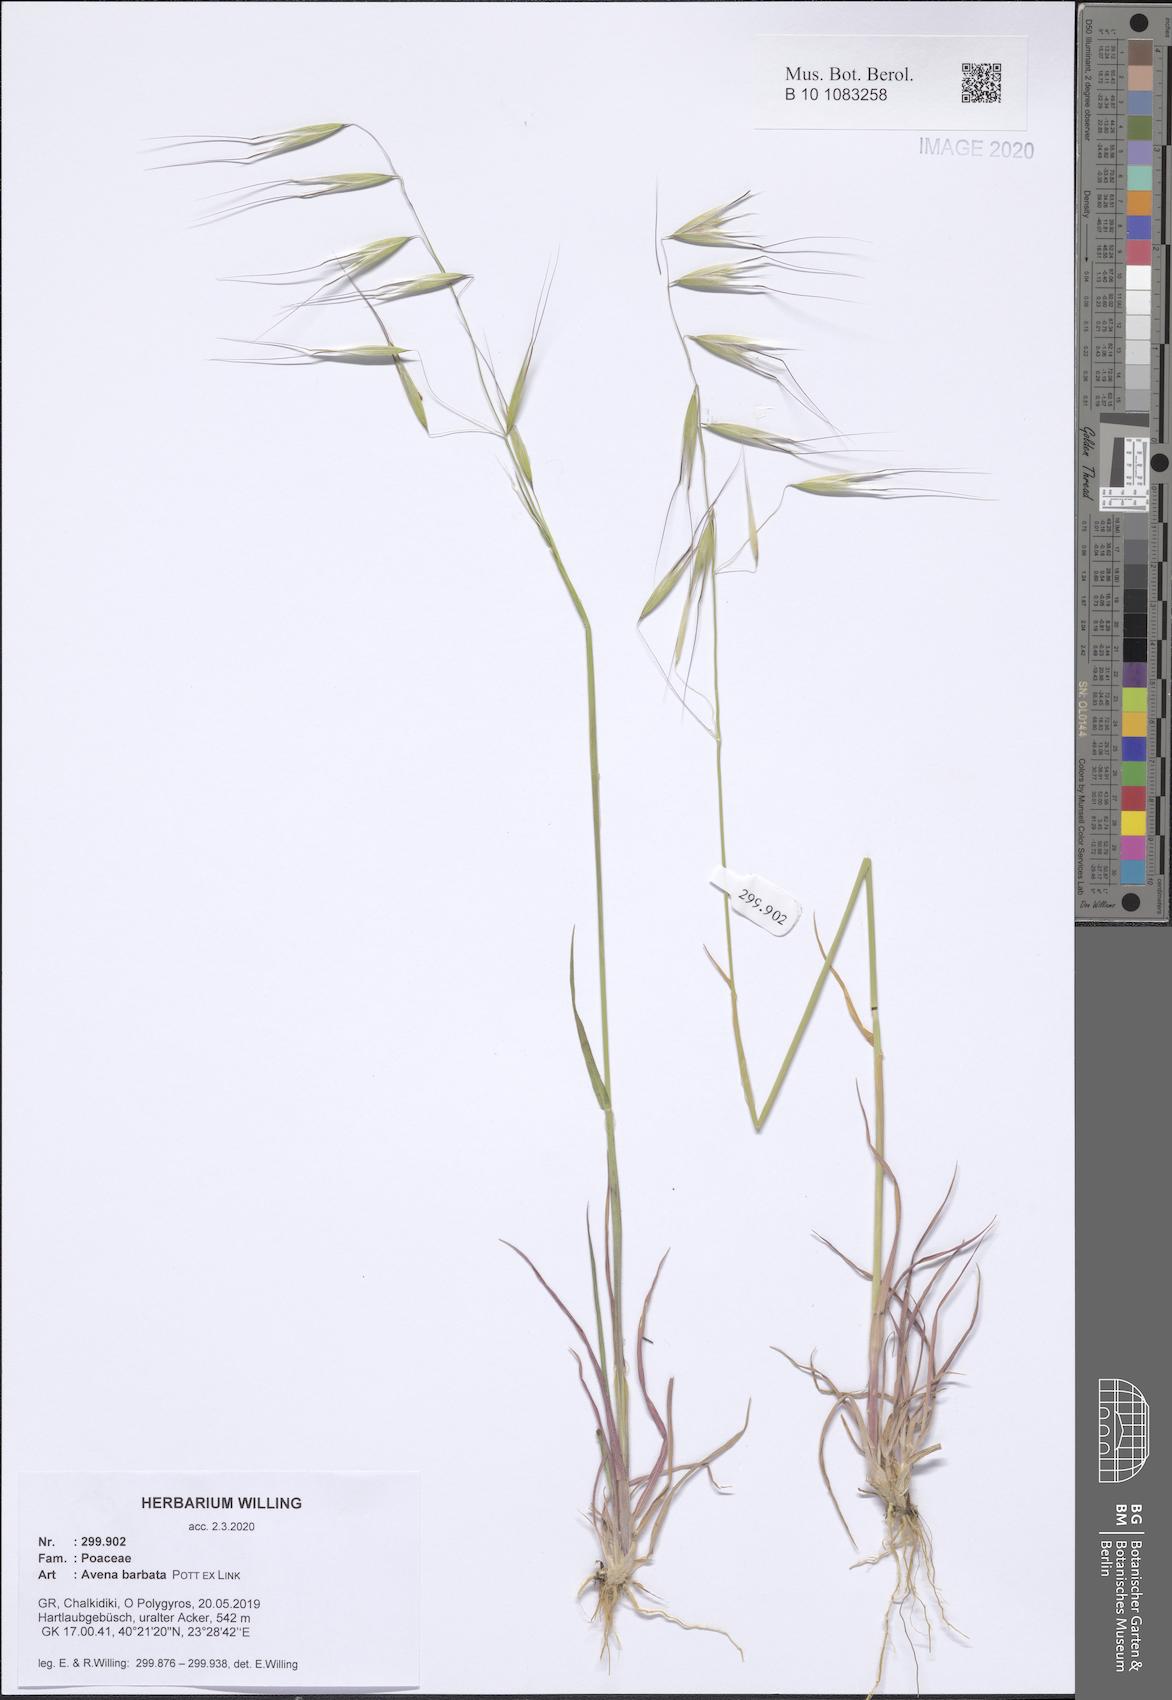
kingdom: Plantae
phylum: Tracheophyta
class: Liliopsida
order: Poales
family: Poaceae
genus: Avena
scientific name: Avena barbata
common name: Slender oat
